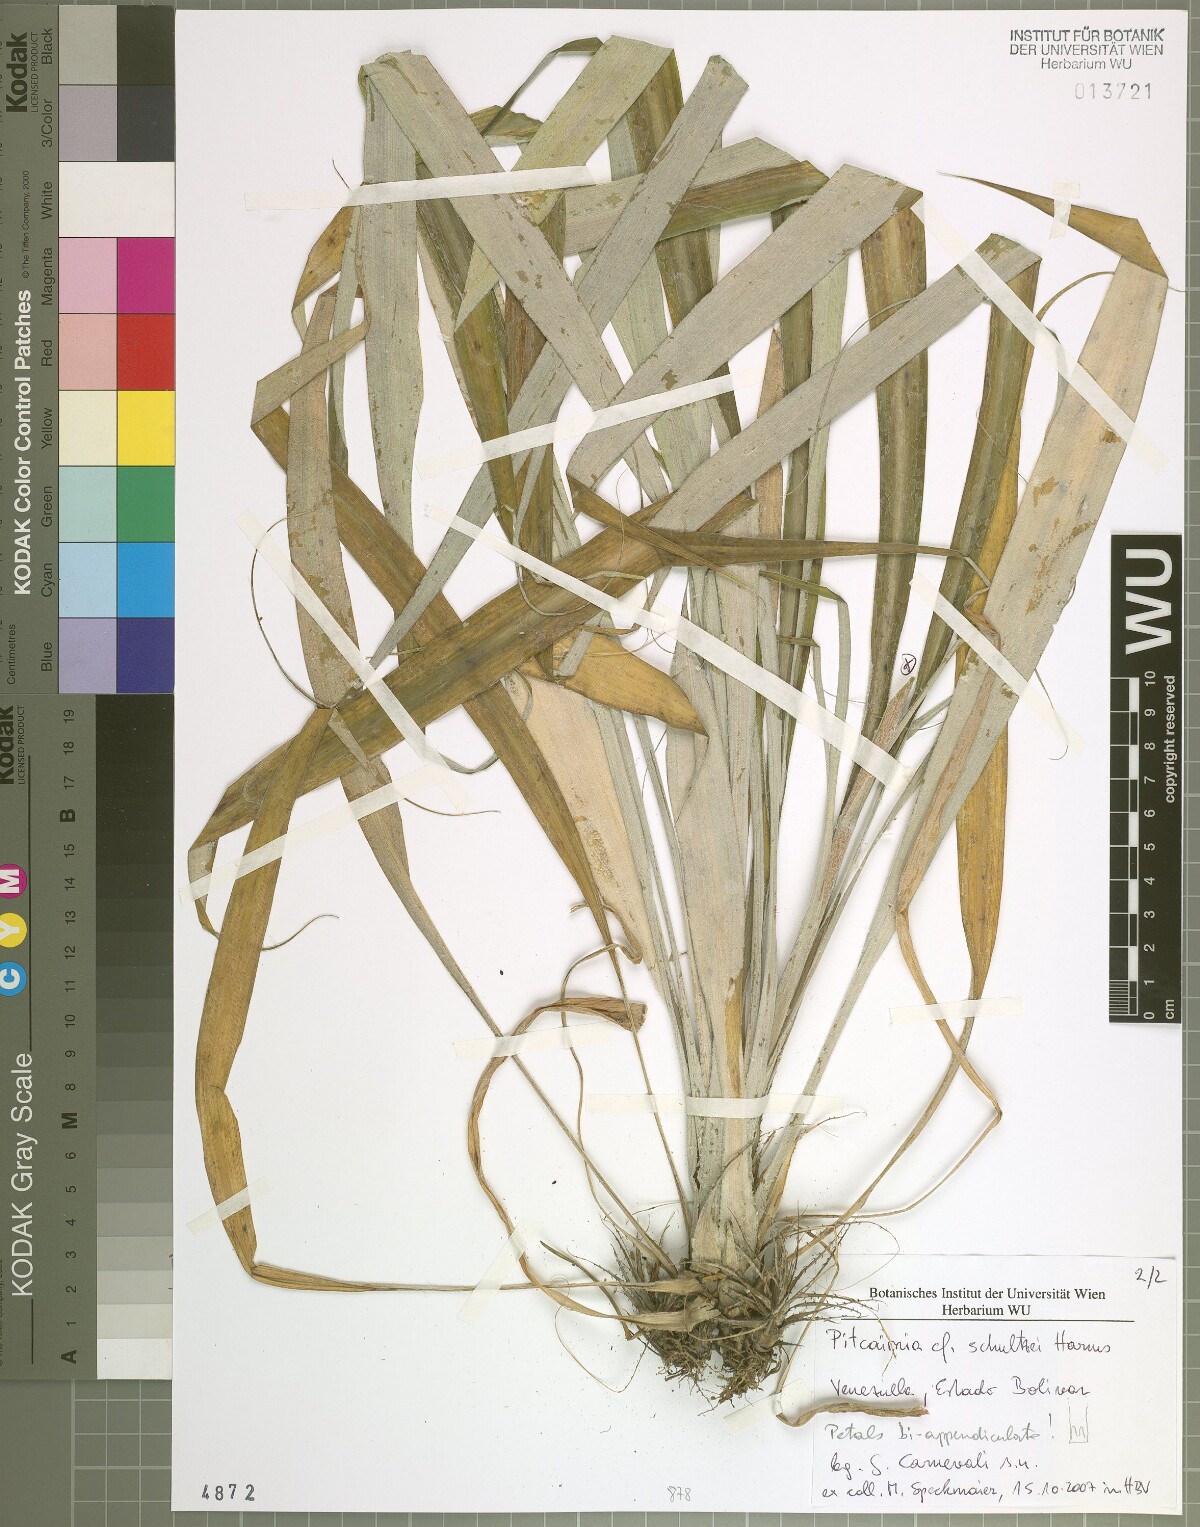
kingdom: Plantae
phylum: Tracheophyta
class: Liliopsida
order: Poales
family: Bromeliaceae
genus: Pitcairnia
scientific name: Pitcairnia
